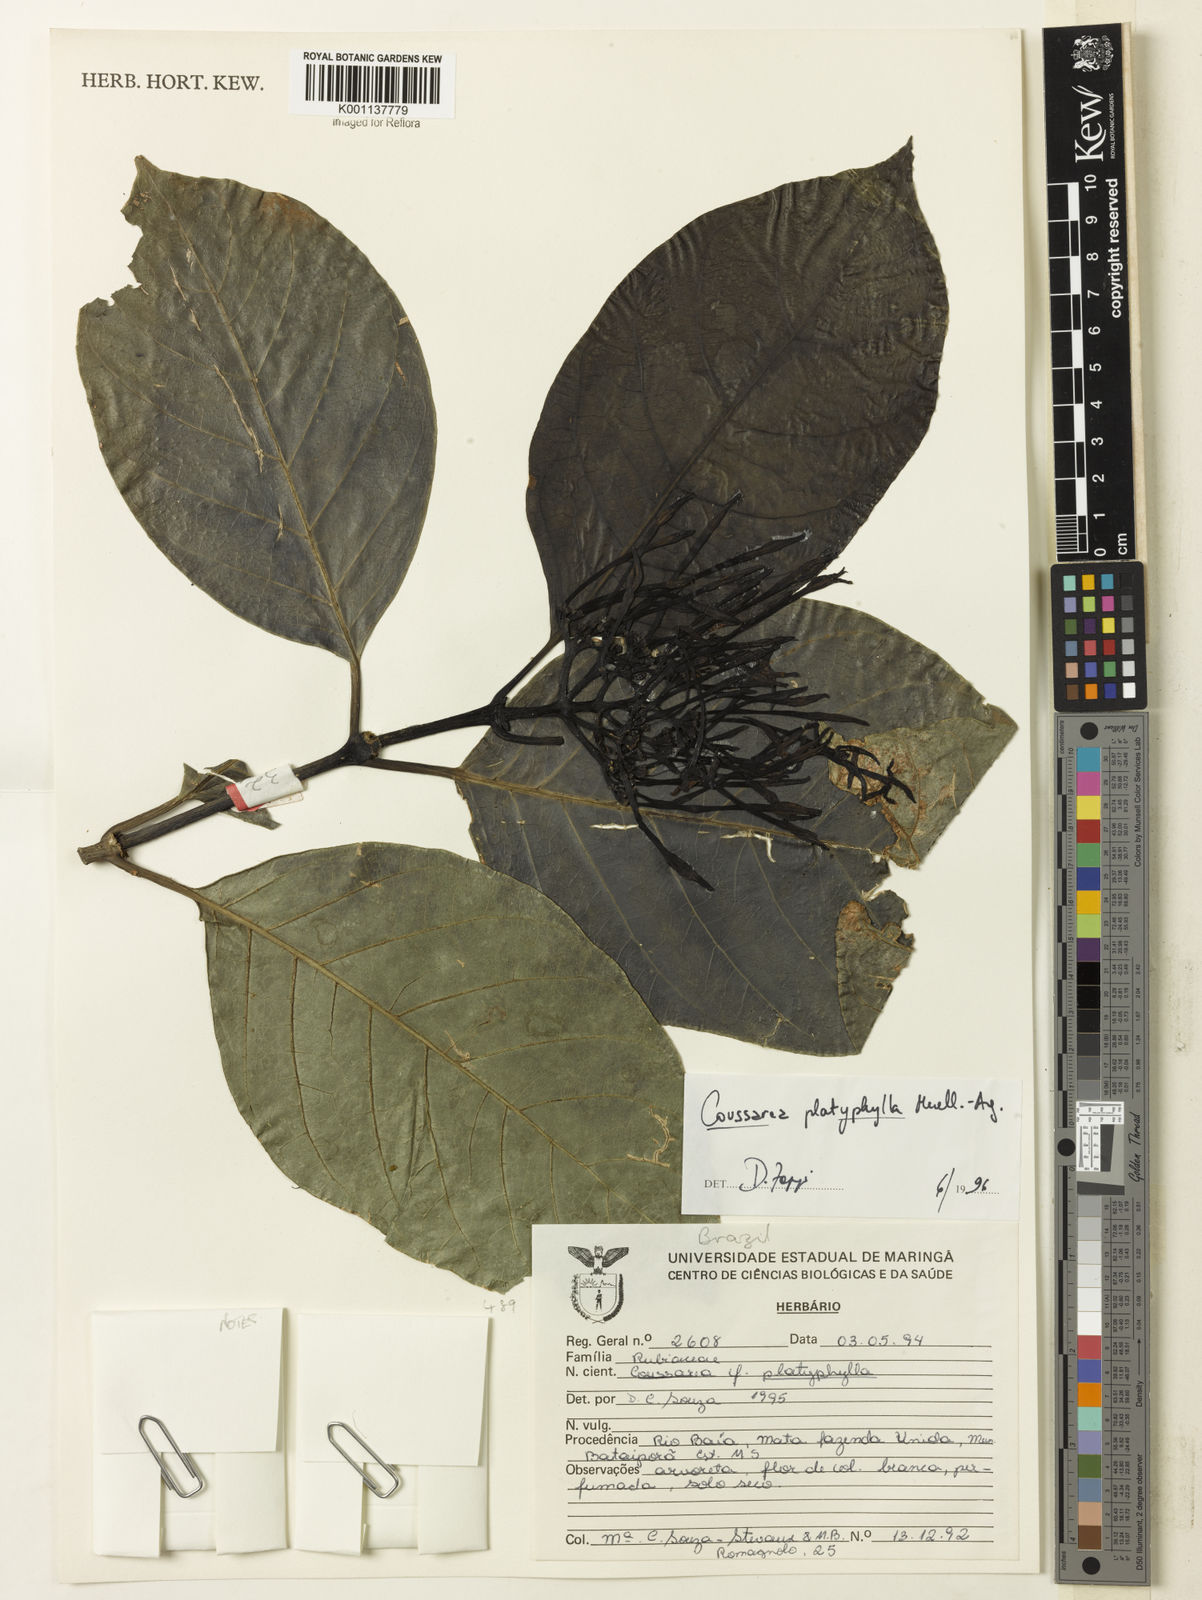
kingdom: Plantae
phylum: Tracheophyta
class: Magnoliopsida
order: Gentianales
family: Rubiaceae
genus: Coussarea
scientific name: Coussarea
